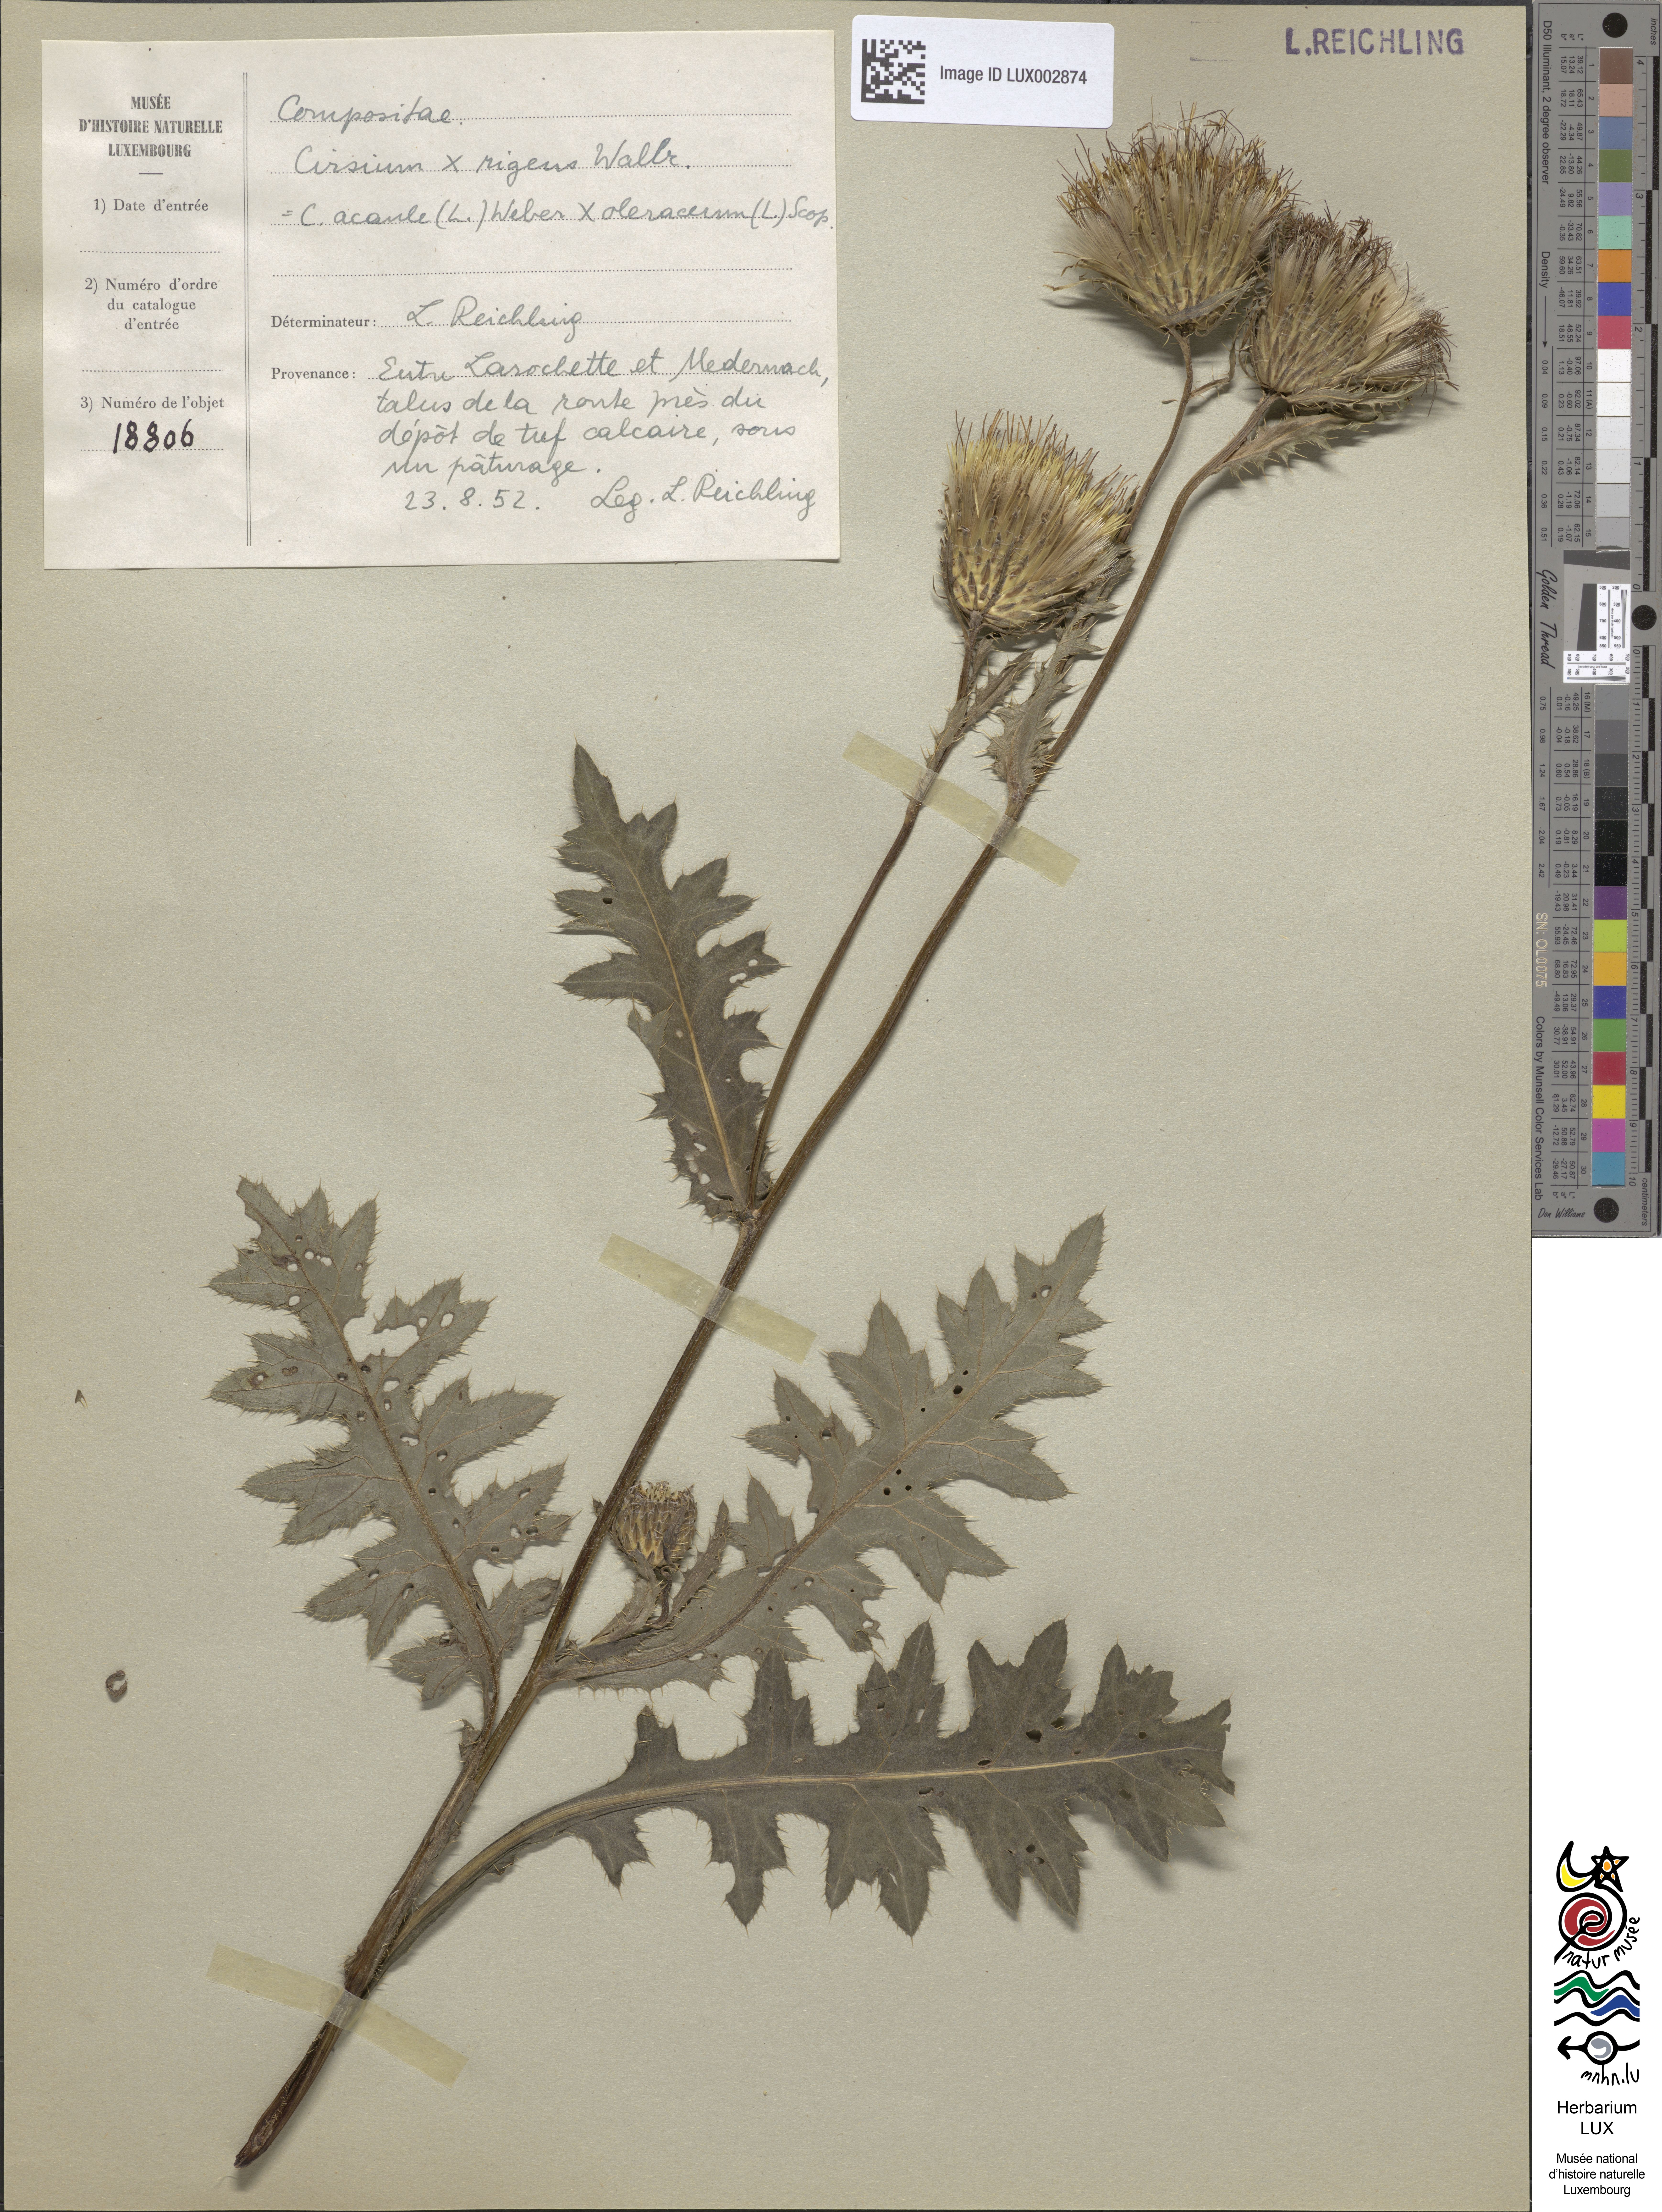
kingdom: Plantae
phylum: Tracheophyta
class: Magnoliopsida
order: Asterales
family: Asteraceae
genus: Cirsium
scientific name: Cirsium rigens
